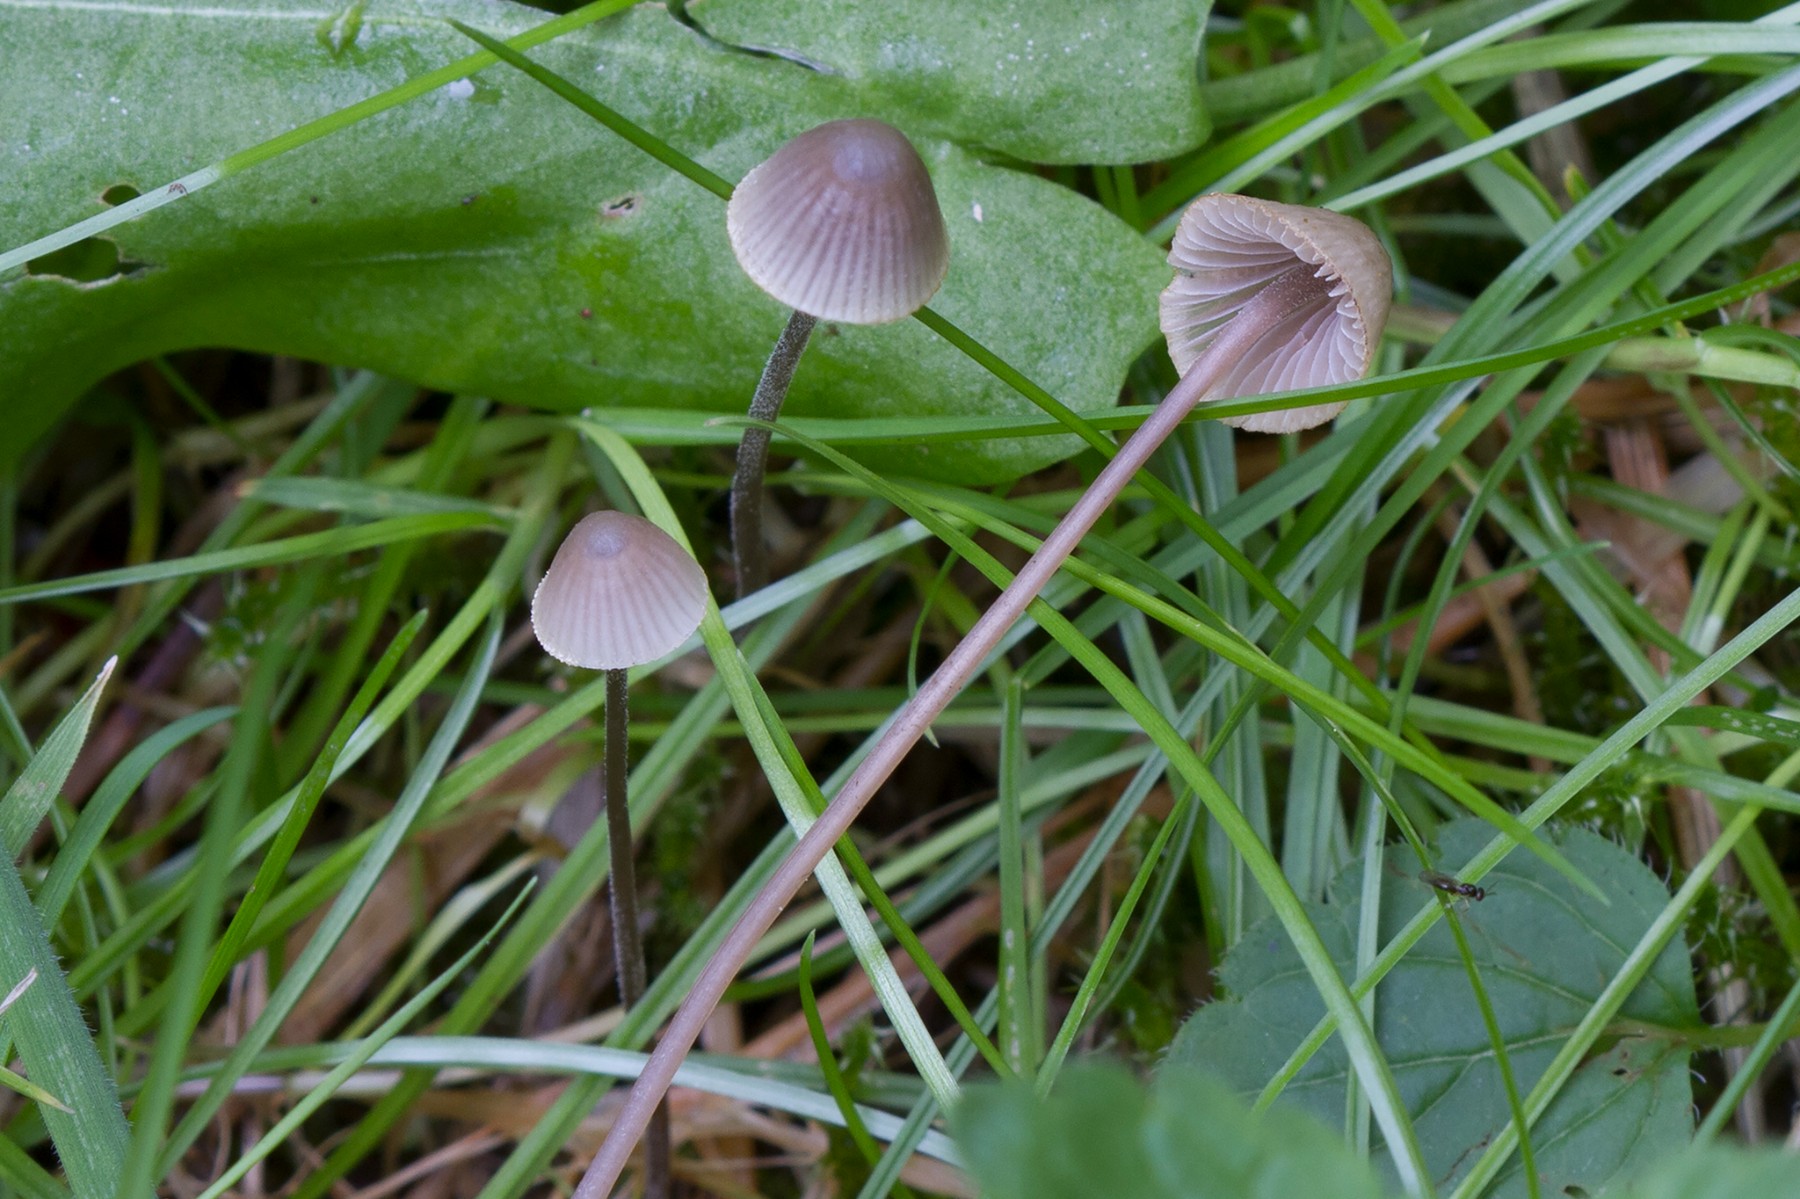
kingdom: Fungi
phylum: Basidiomycota
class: Agaricomycetes
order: Agaricales
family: Mycenaceae
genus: Mycena
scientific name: Mycena amicta
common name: iris-huesvamp
